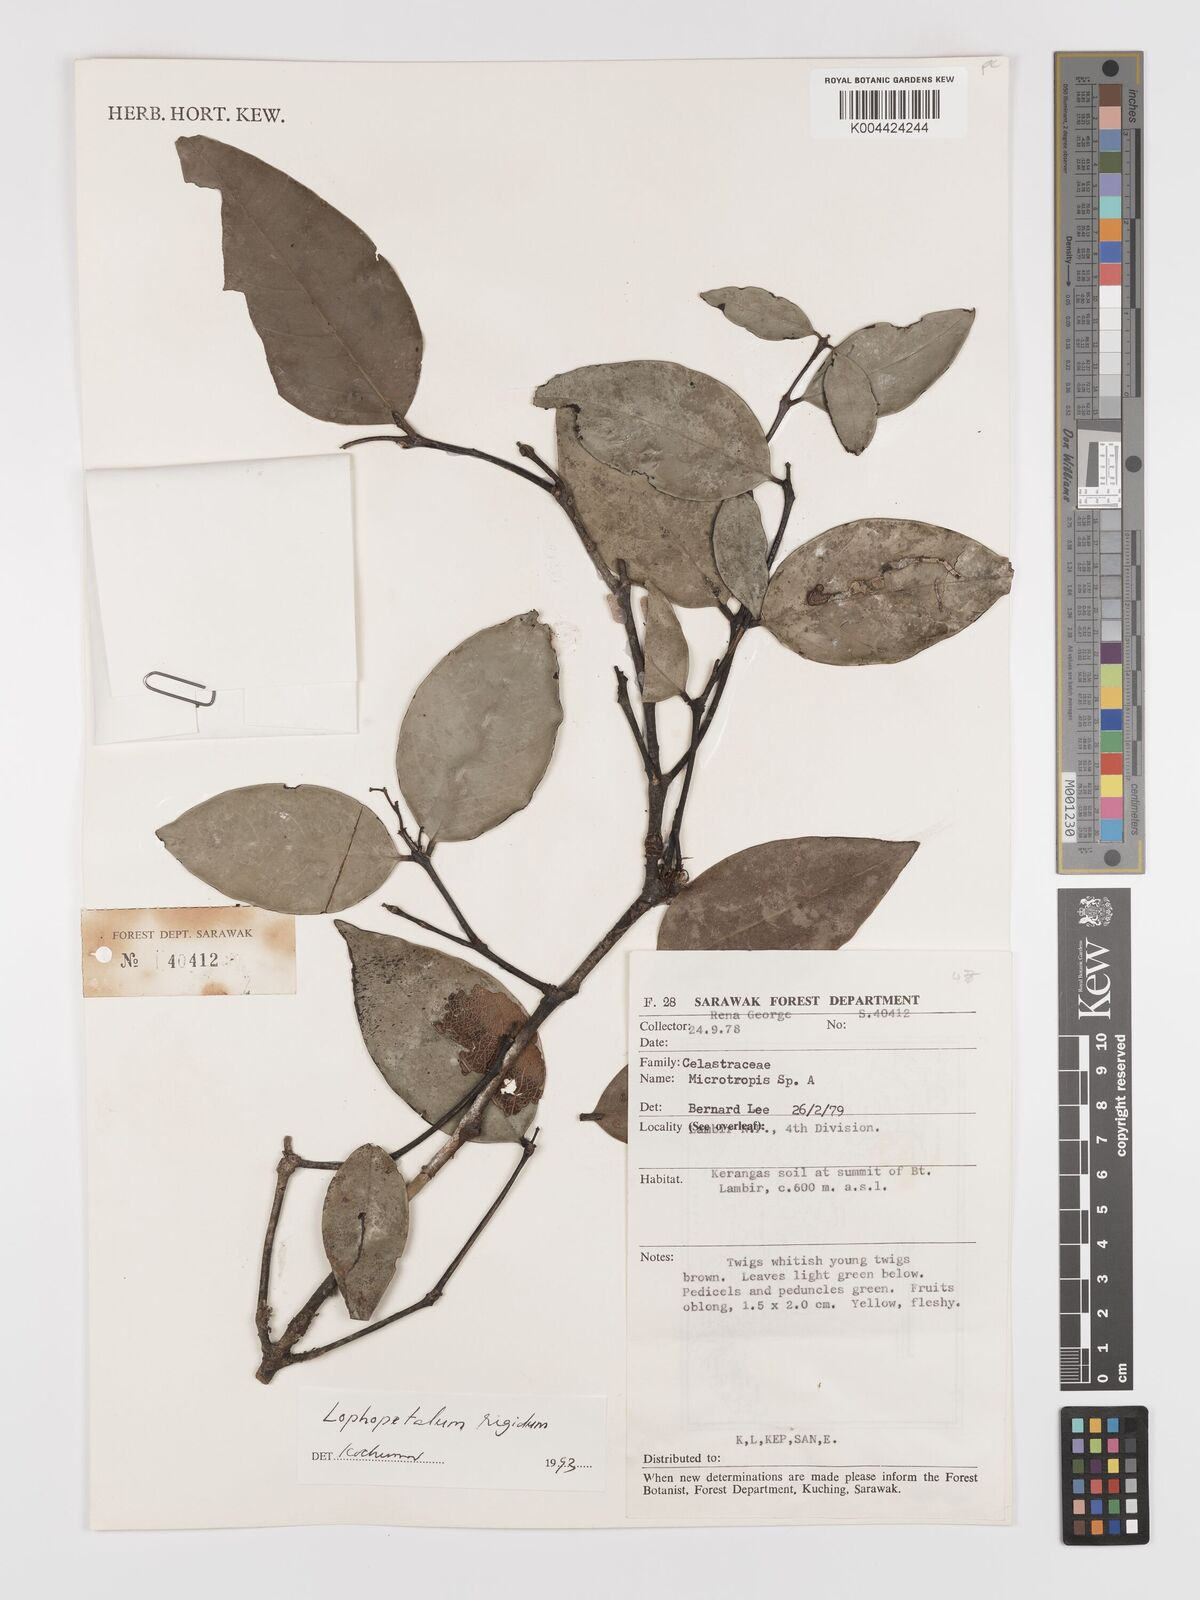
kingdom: Plantae
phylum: Tracheophyta
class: Magnoliopsida
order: Celastrales
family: Celastraceae
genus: Lophopetalum
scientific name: Lophopetalum rigidum
